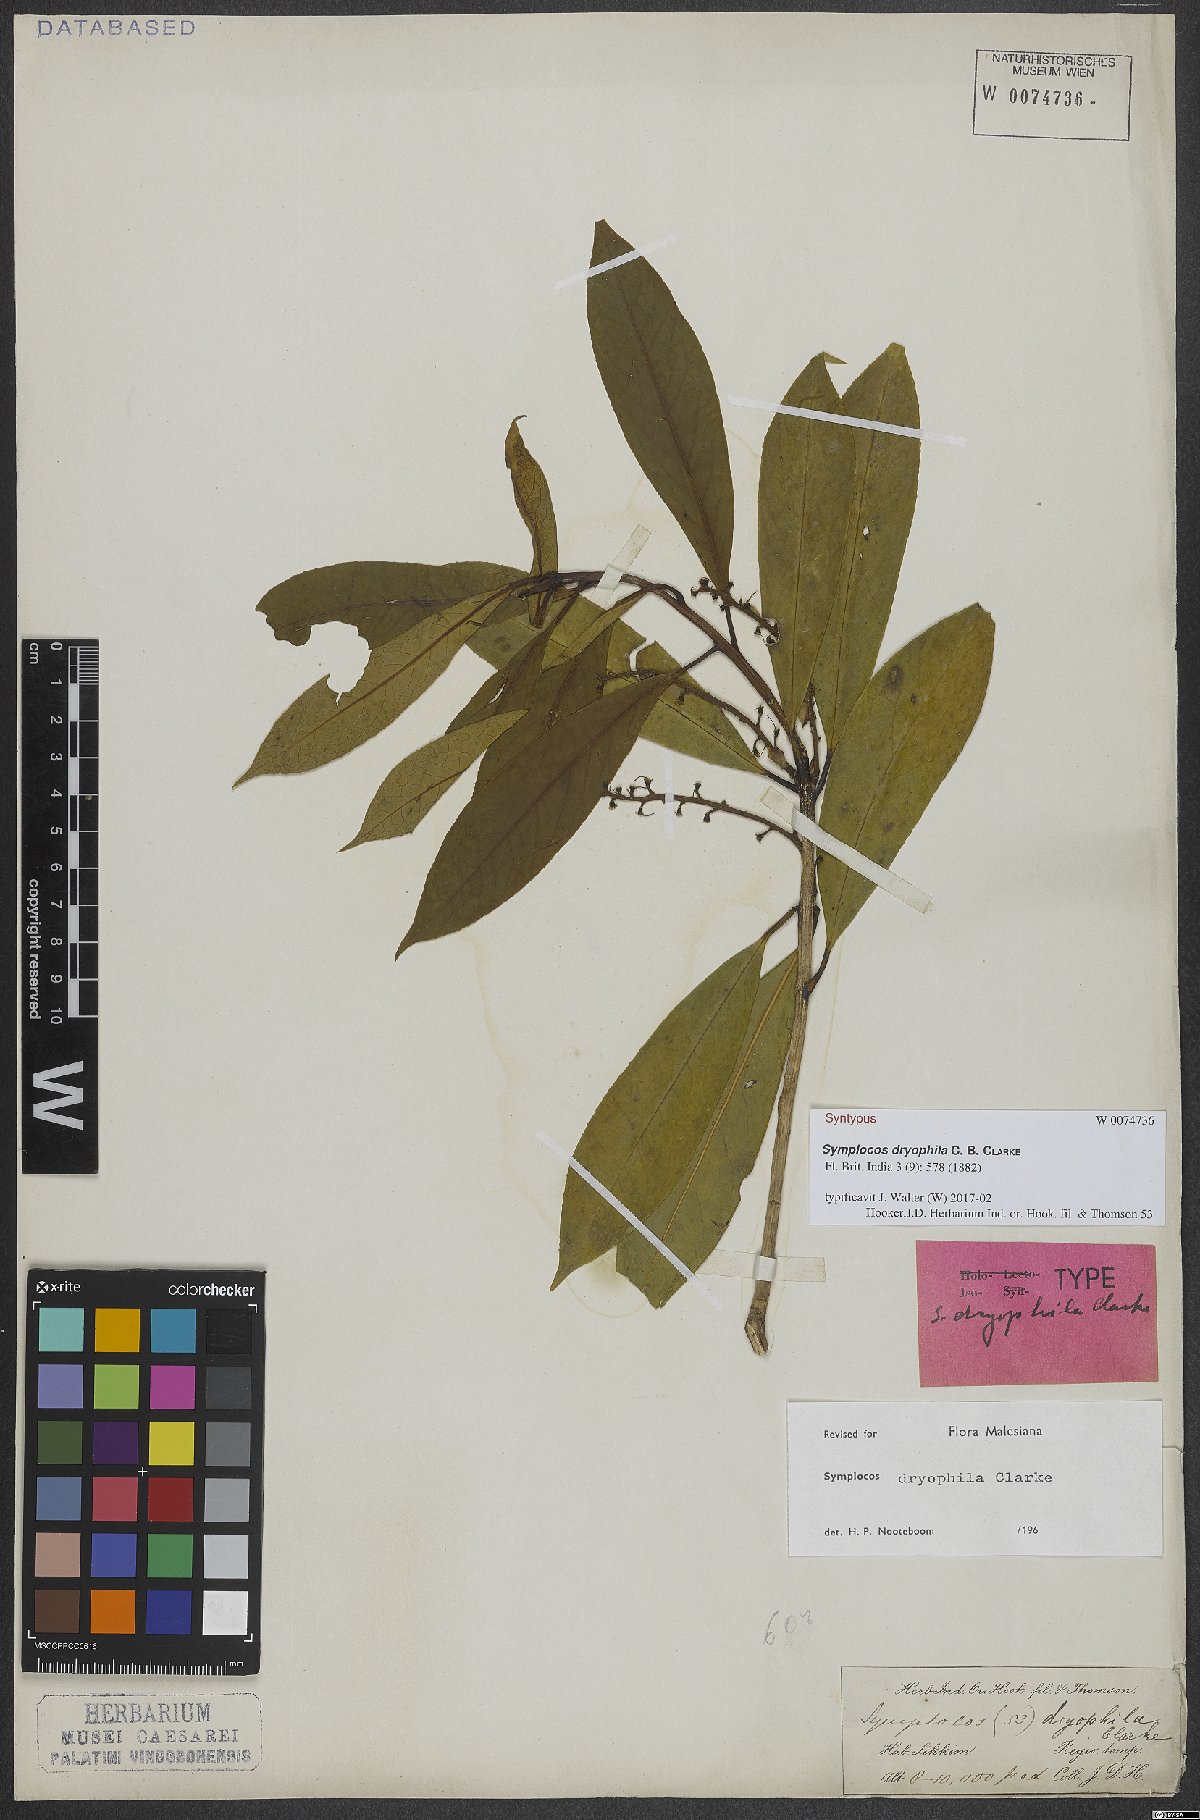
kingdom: Plantae
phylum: Tracheophyta
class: Magnoliopsida
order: Ericales
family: Symplocaceae
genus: Symplocos
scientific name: Symplocos dryophila
